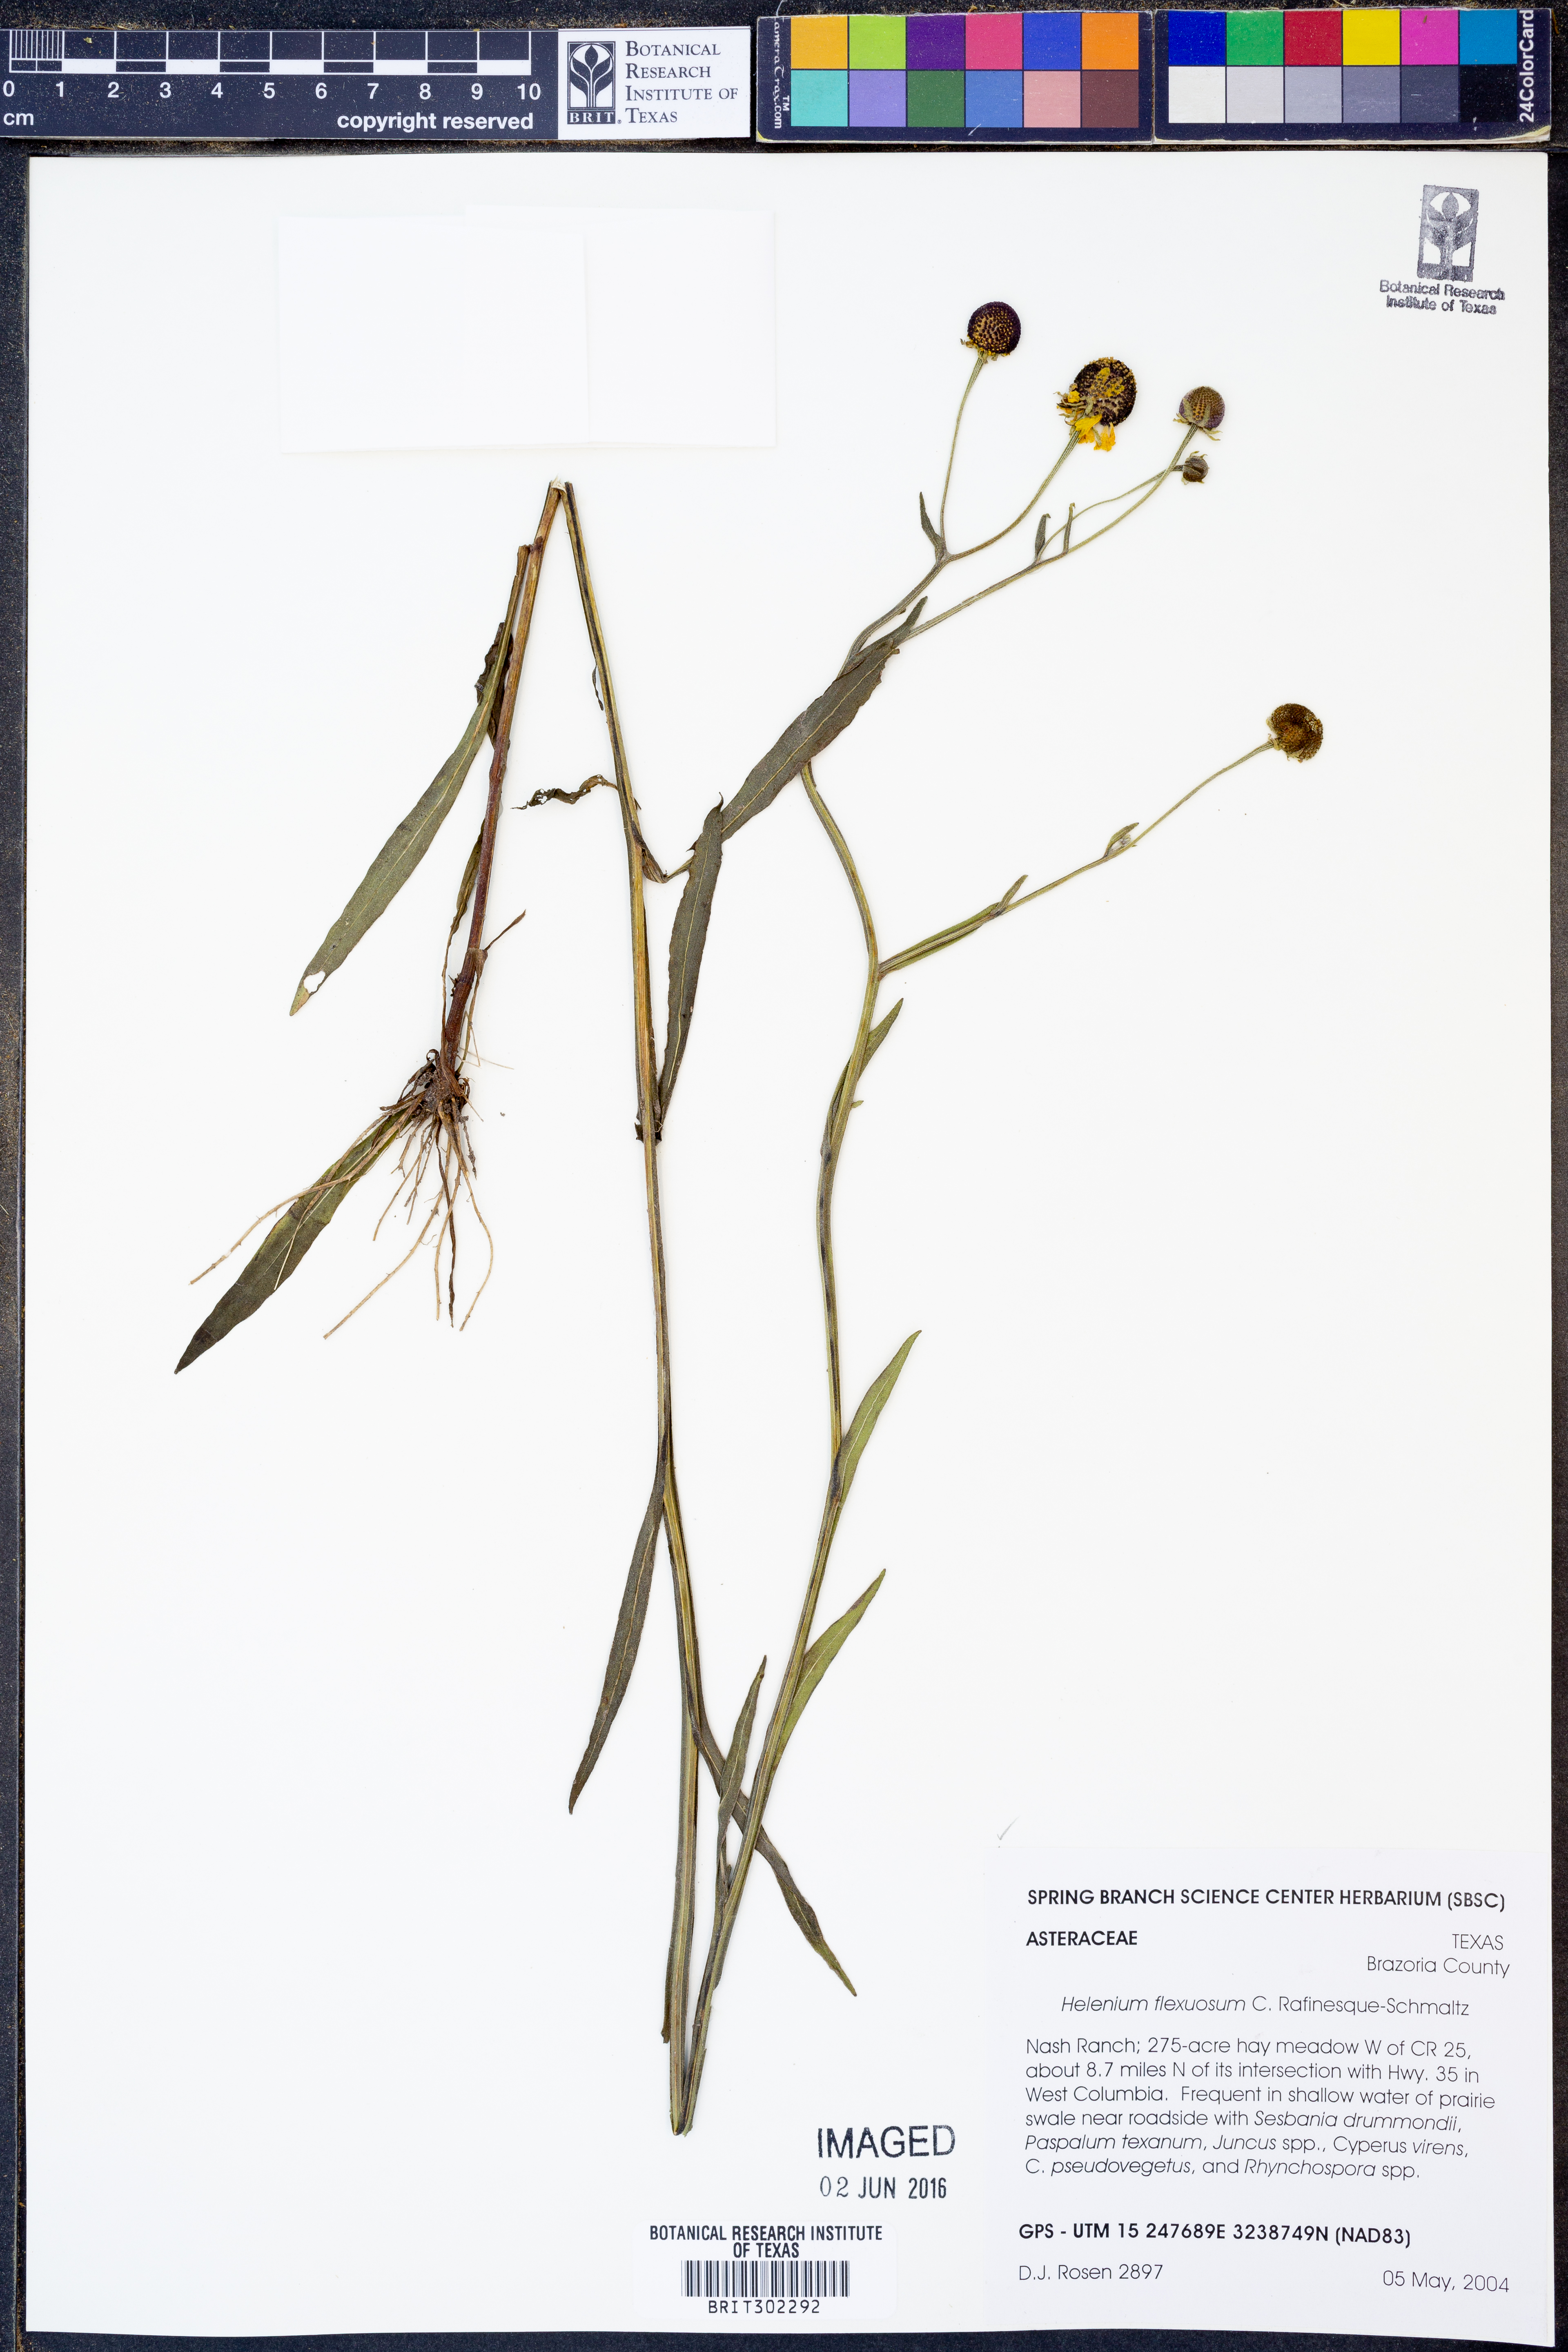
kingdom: Plantae
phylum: Tracheophyta
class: Magnoliopsida
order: Asterales
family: Asteraceae
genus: Helenium
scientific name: Helenium flexuosum
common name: Naked-flowered sneezeweed
